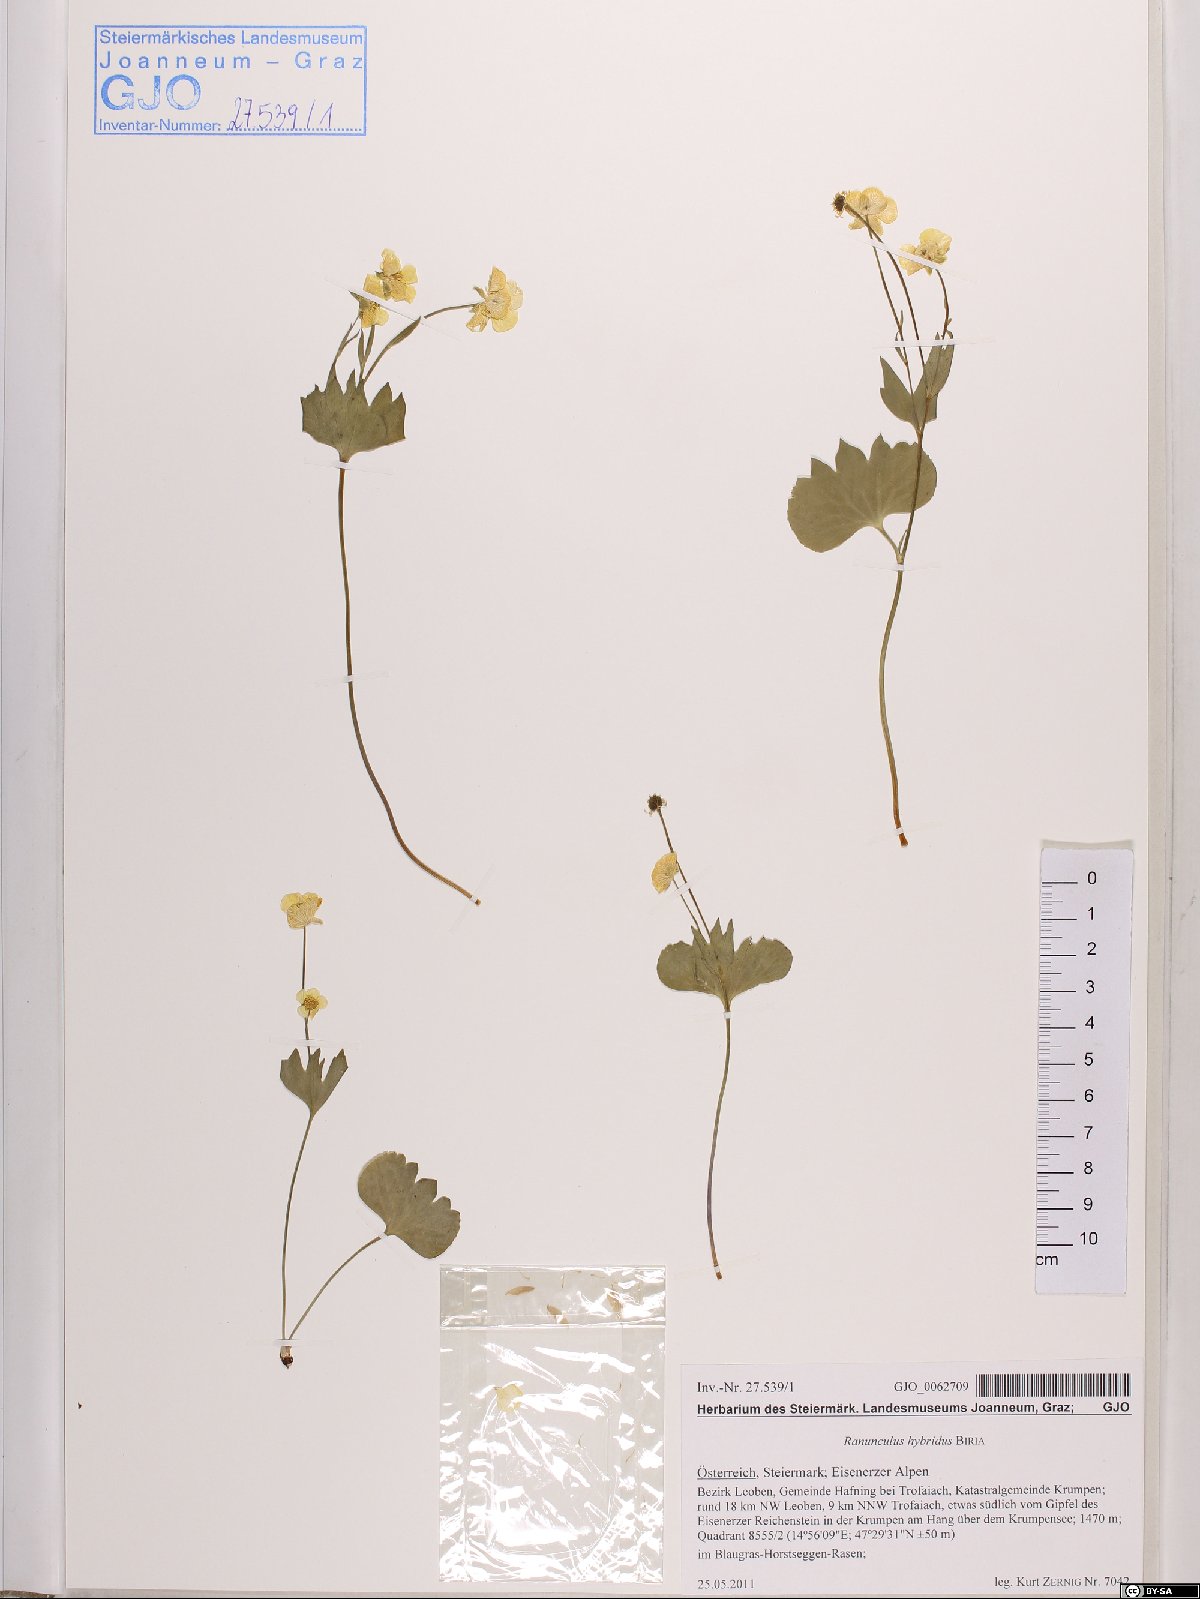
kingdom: Plantae
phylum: Tracheophyta
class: Magnoliopsida
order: Ranunculales
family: Ranunculaceae
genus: Ranunculus
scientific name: Ranunculus hybridus
